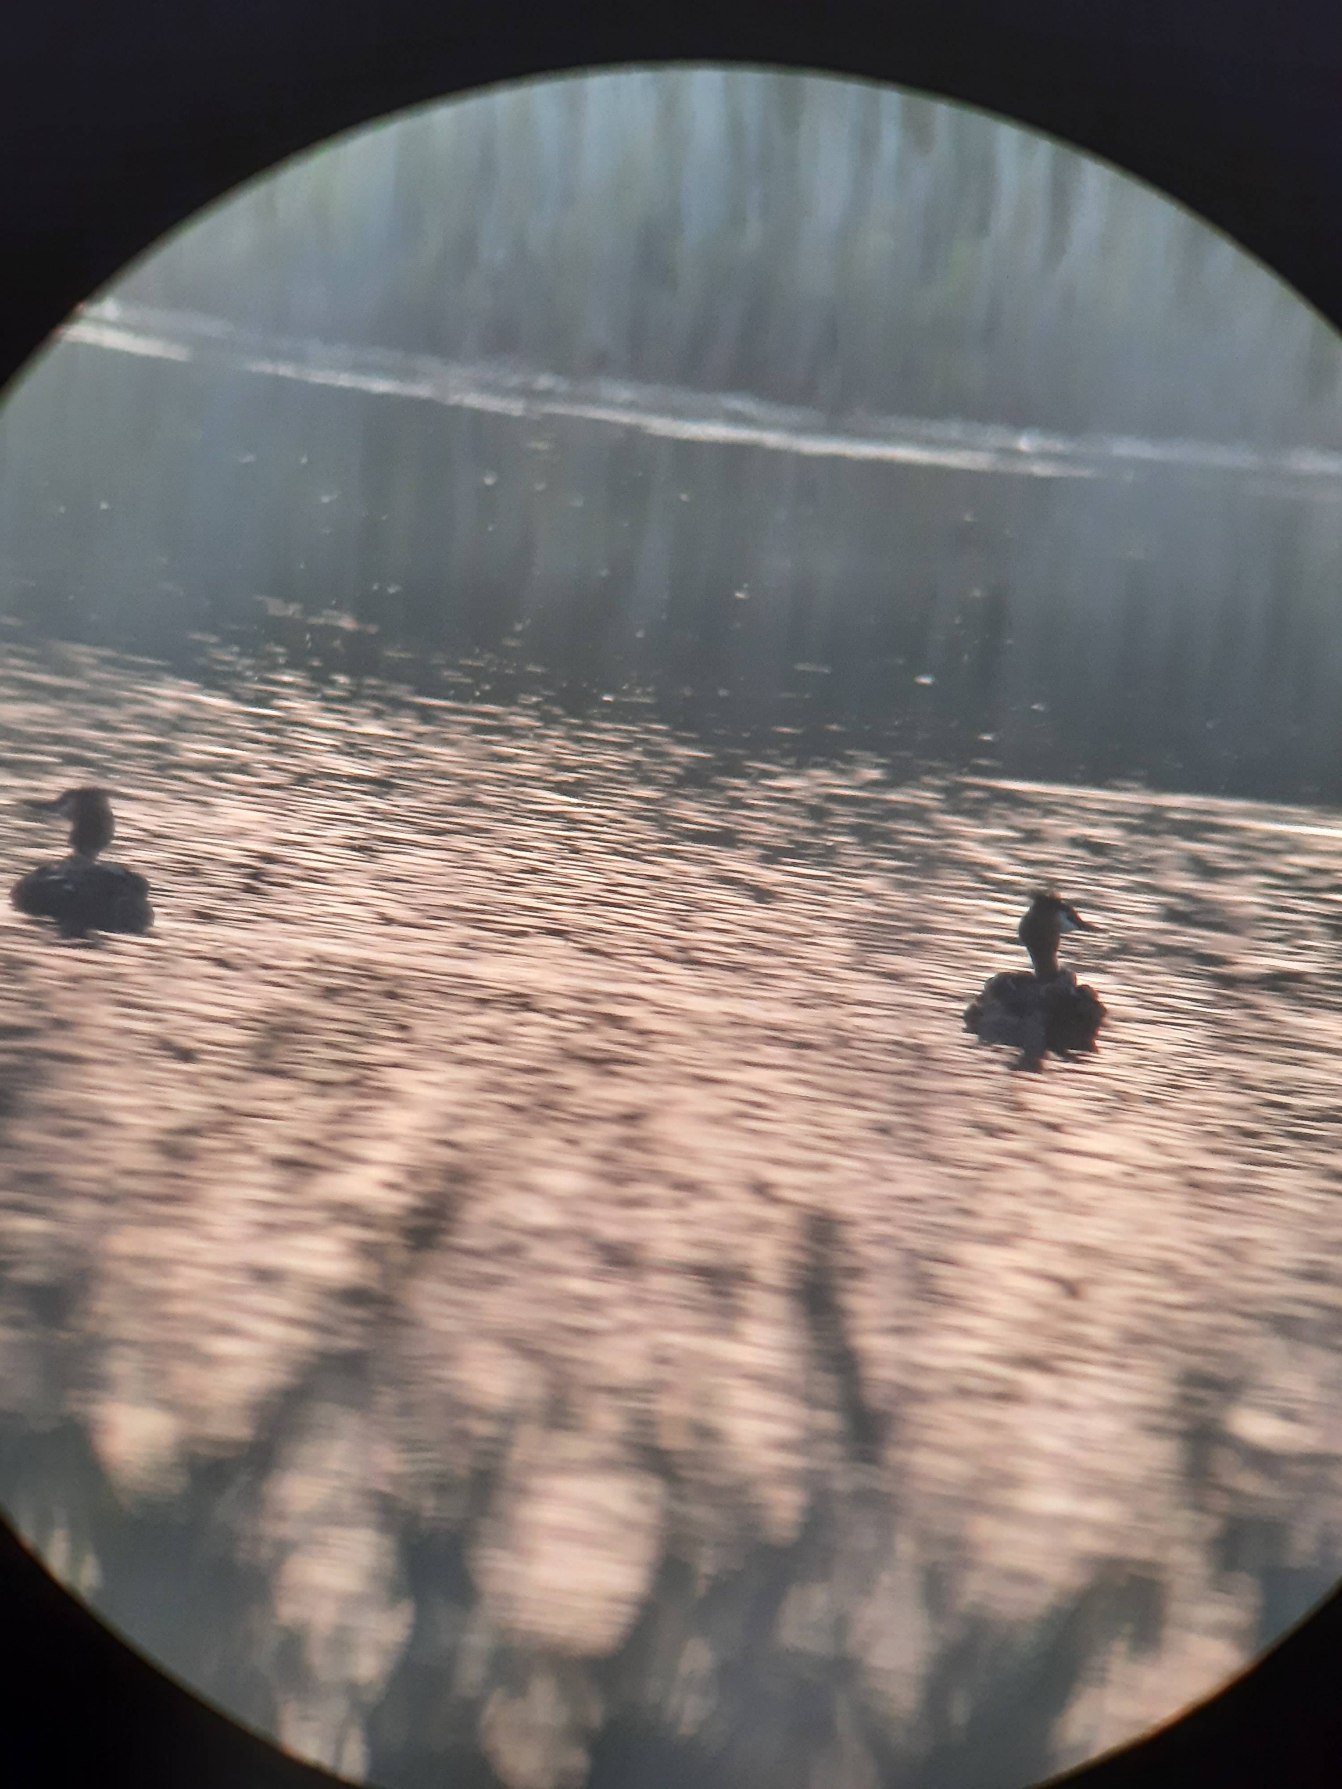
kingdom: Animalia
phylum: Chordata
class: Aves
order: Podicipediformes
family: Podicipedidae
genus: Podiceps
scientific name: Podiceps cristatus
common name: Toppet lappedykker
